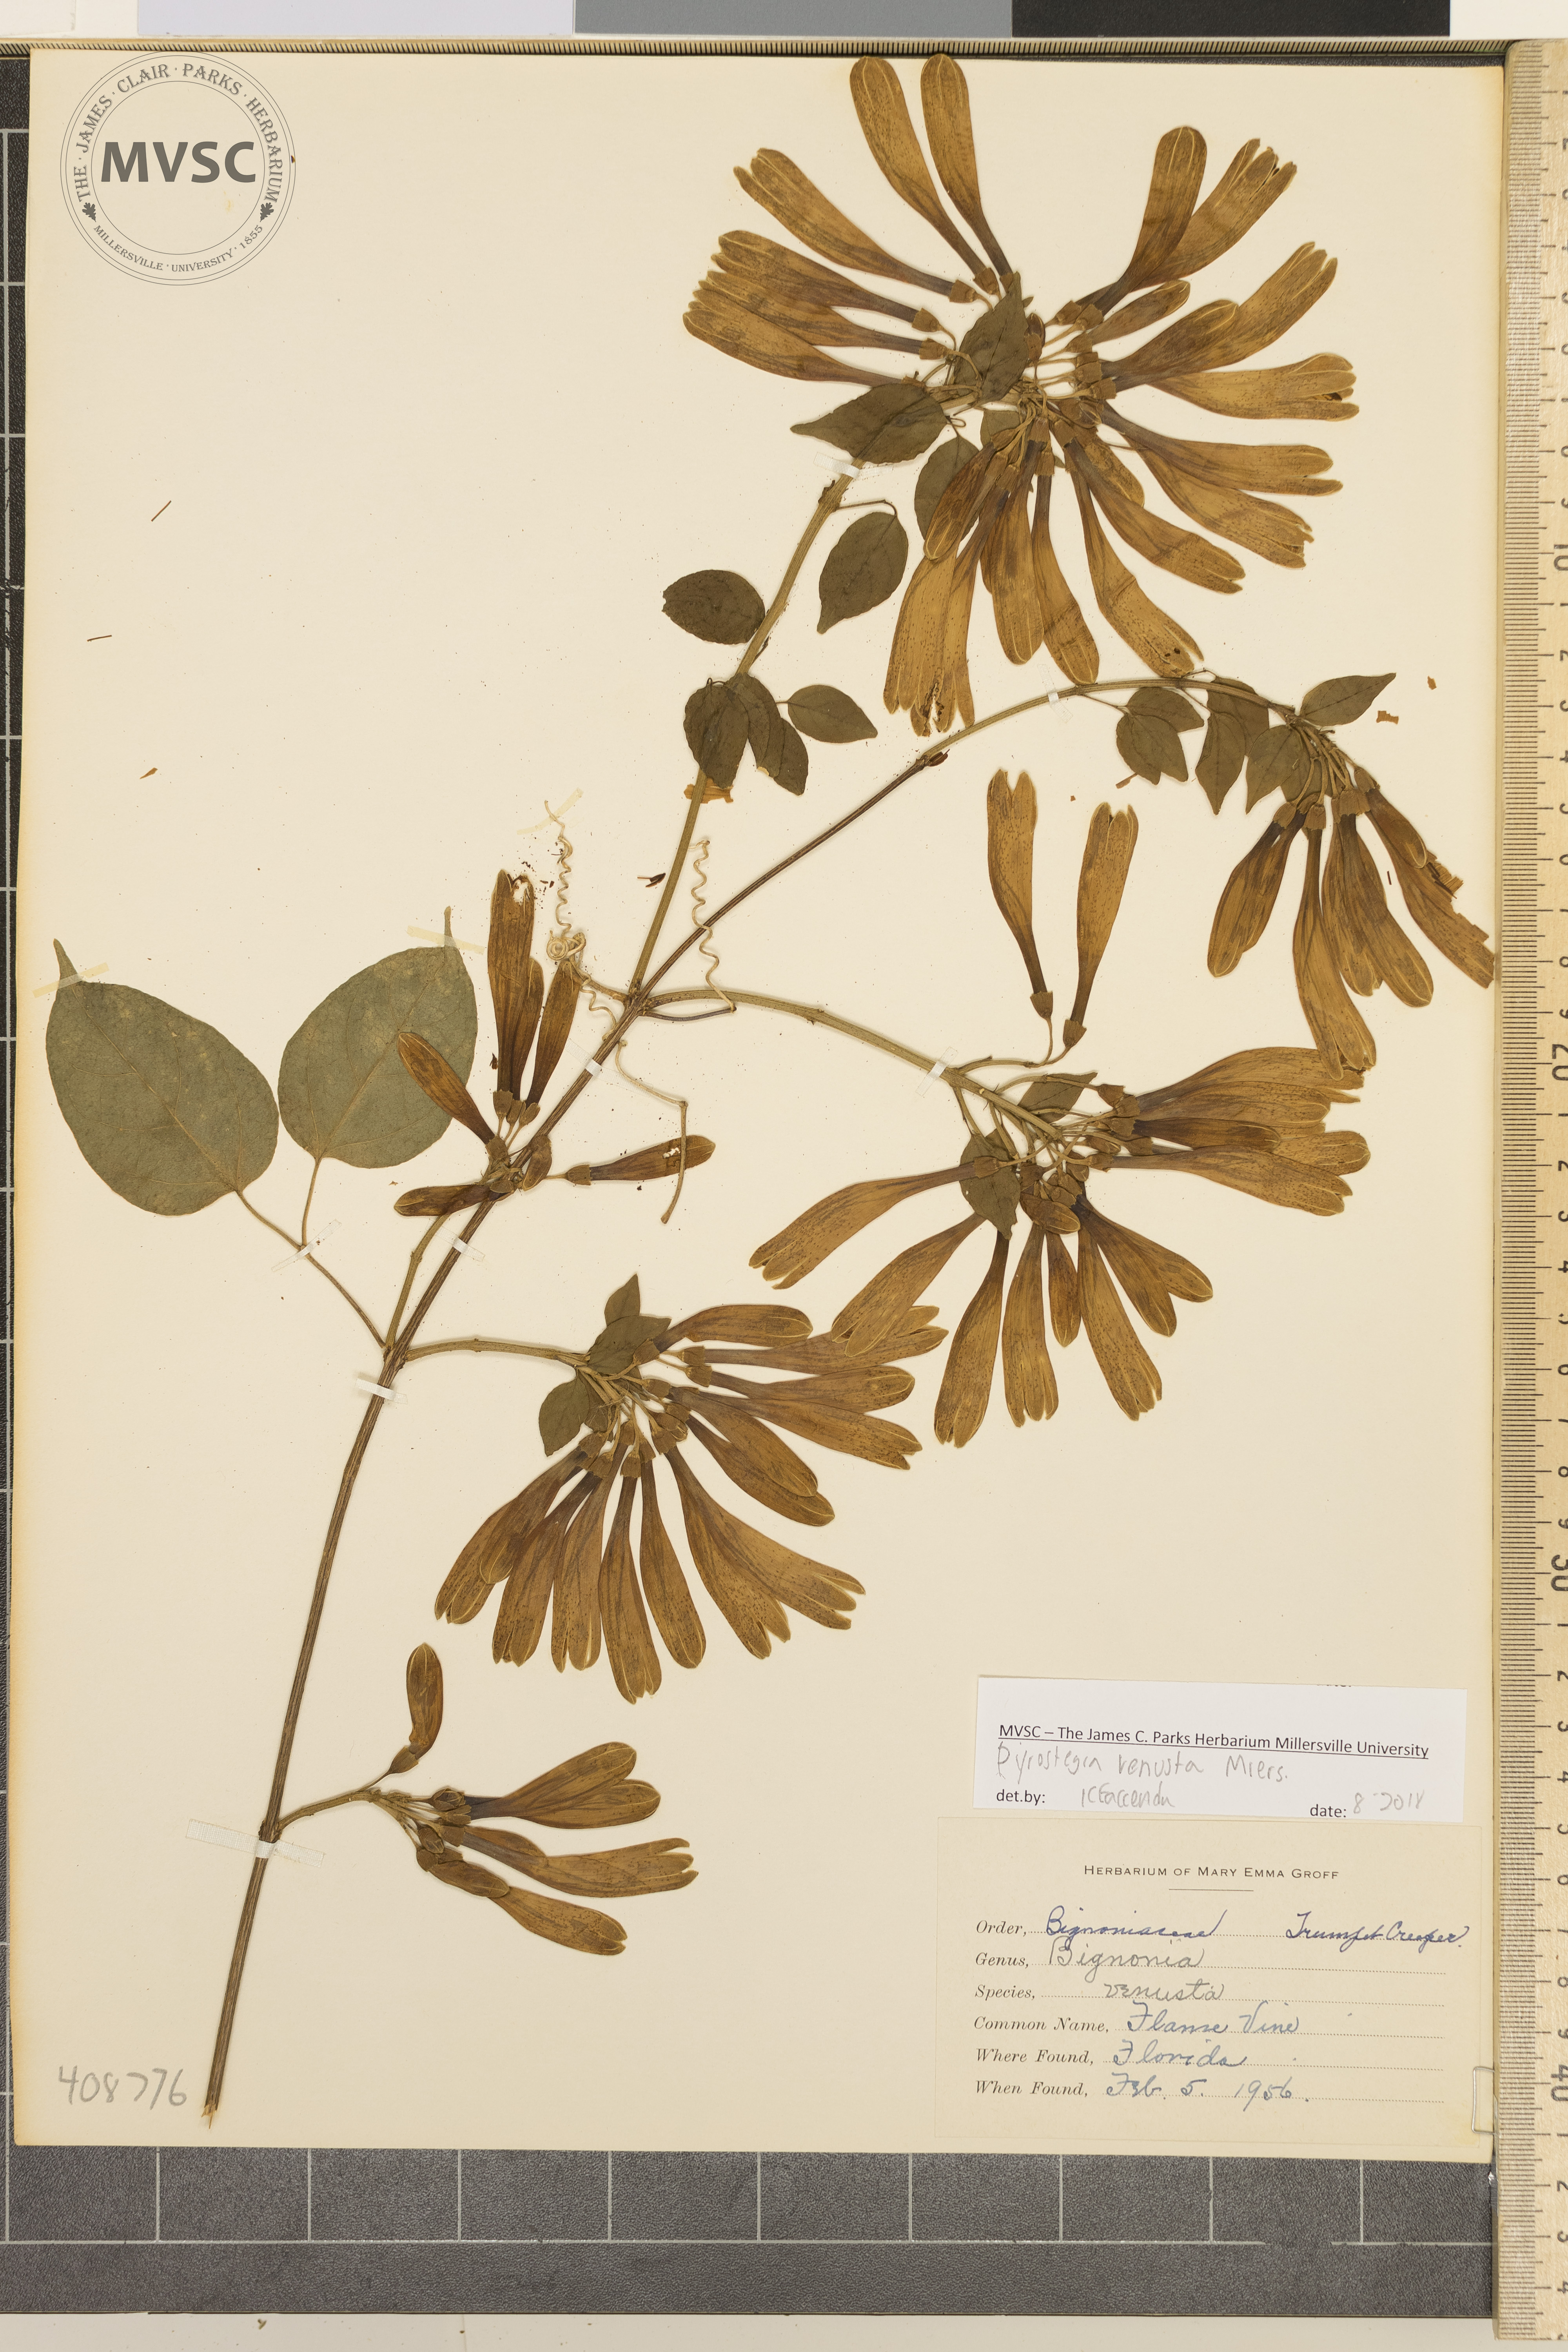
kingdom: Plantae
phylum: Tracheophyta
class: Magnoliopsida
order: Lamiales
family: Bignoniaceae
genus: Pyrostegia
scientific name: Pyrostegia venusta
